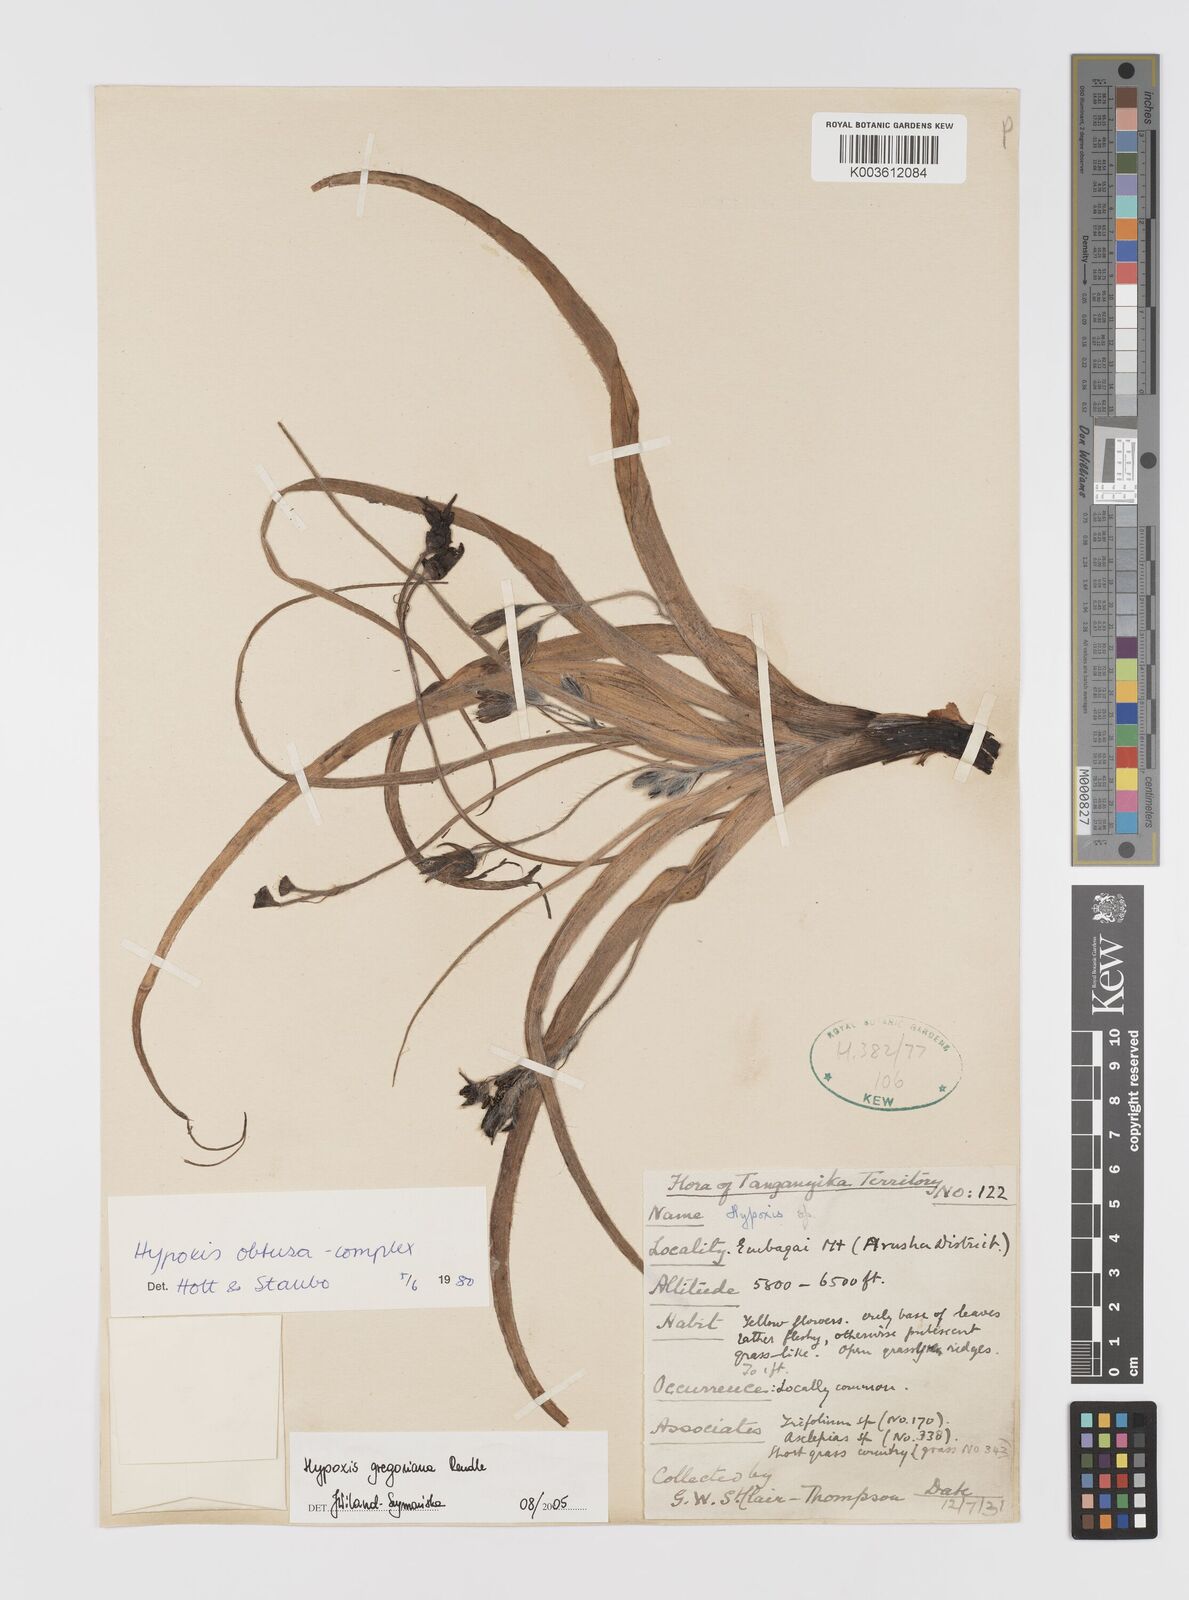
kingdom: Plantae
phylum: Tracheophyta
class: Liliopsida
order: Asparagales
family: Hypoxidaceae
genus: Hypoxis
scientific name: Hypoxis gregoriana
